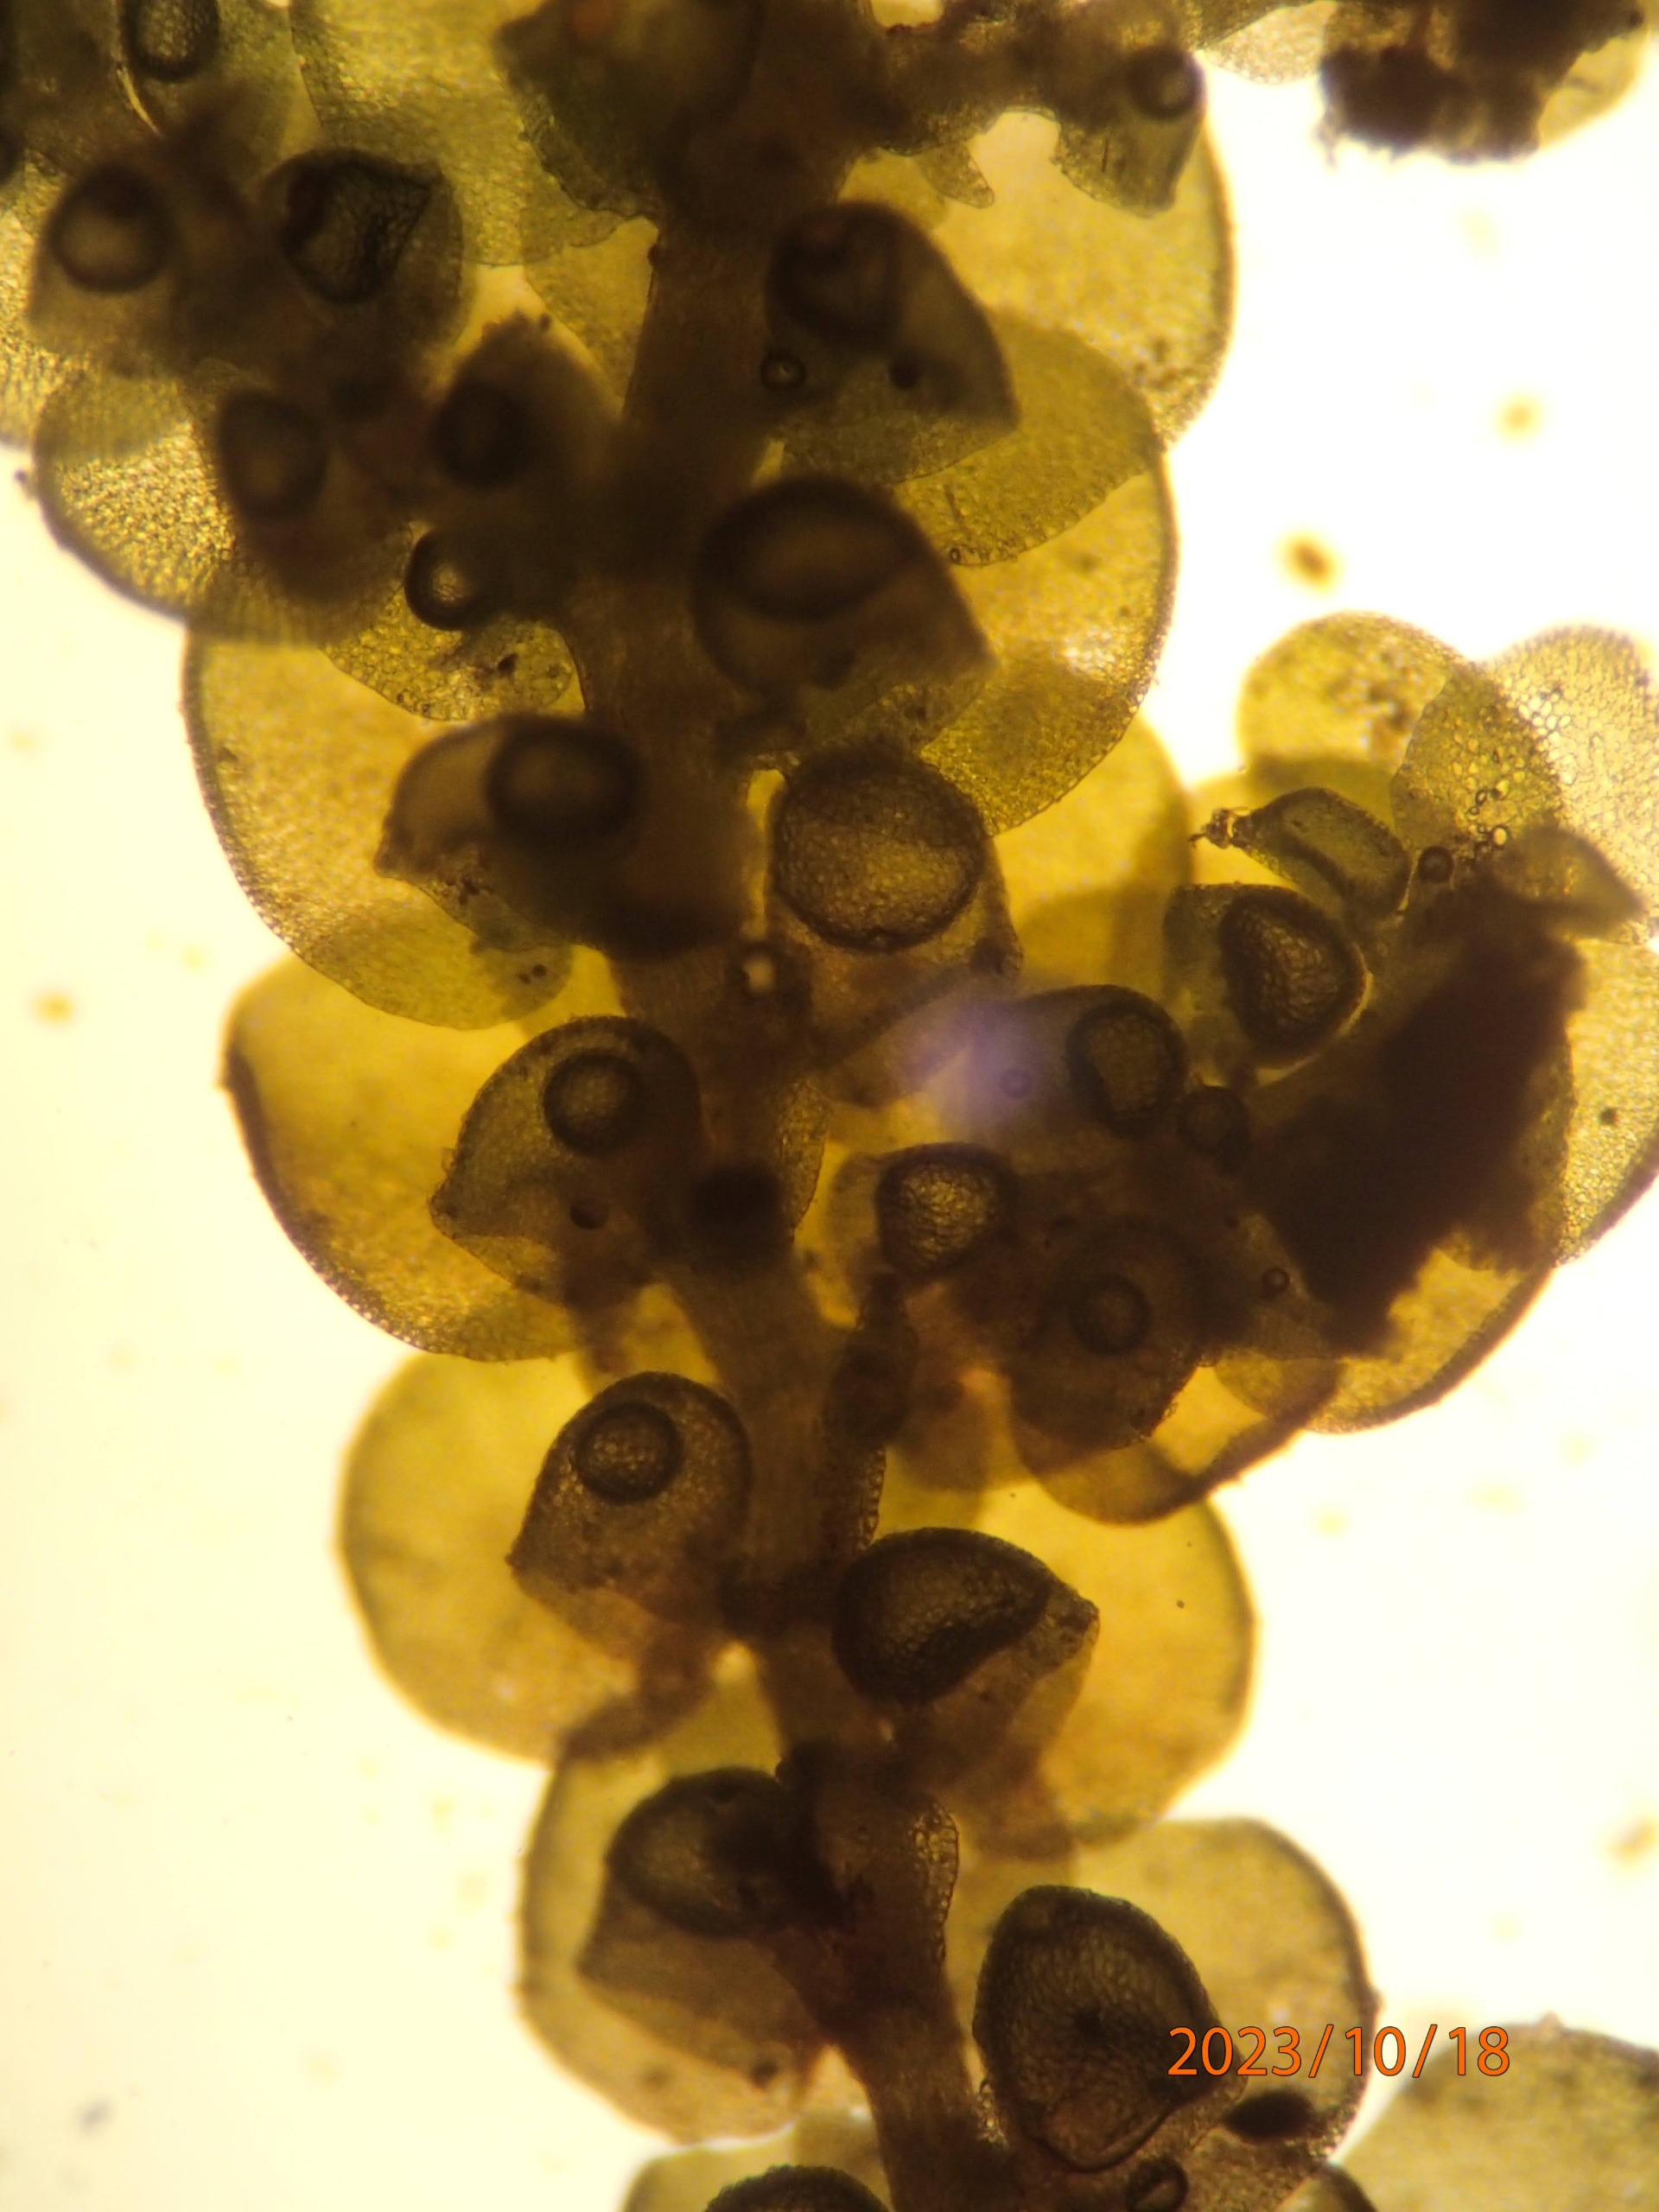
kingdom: Plantae
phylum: Marchantiophyta
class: Jungermanniopsida
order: Porellales
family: Frullaniaceae
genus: Frullania
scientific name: Frullania dilatata
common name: Mat bronzemos
